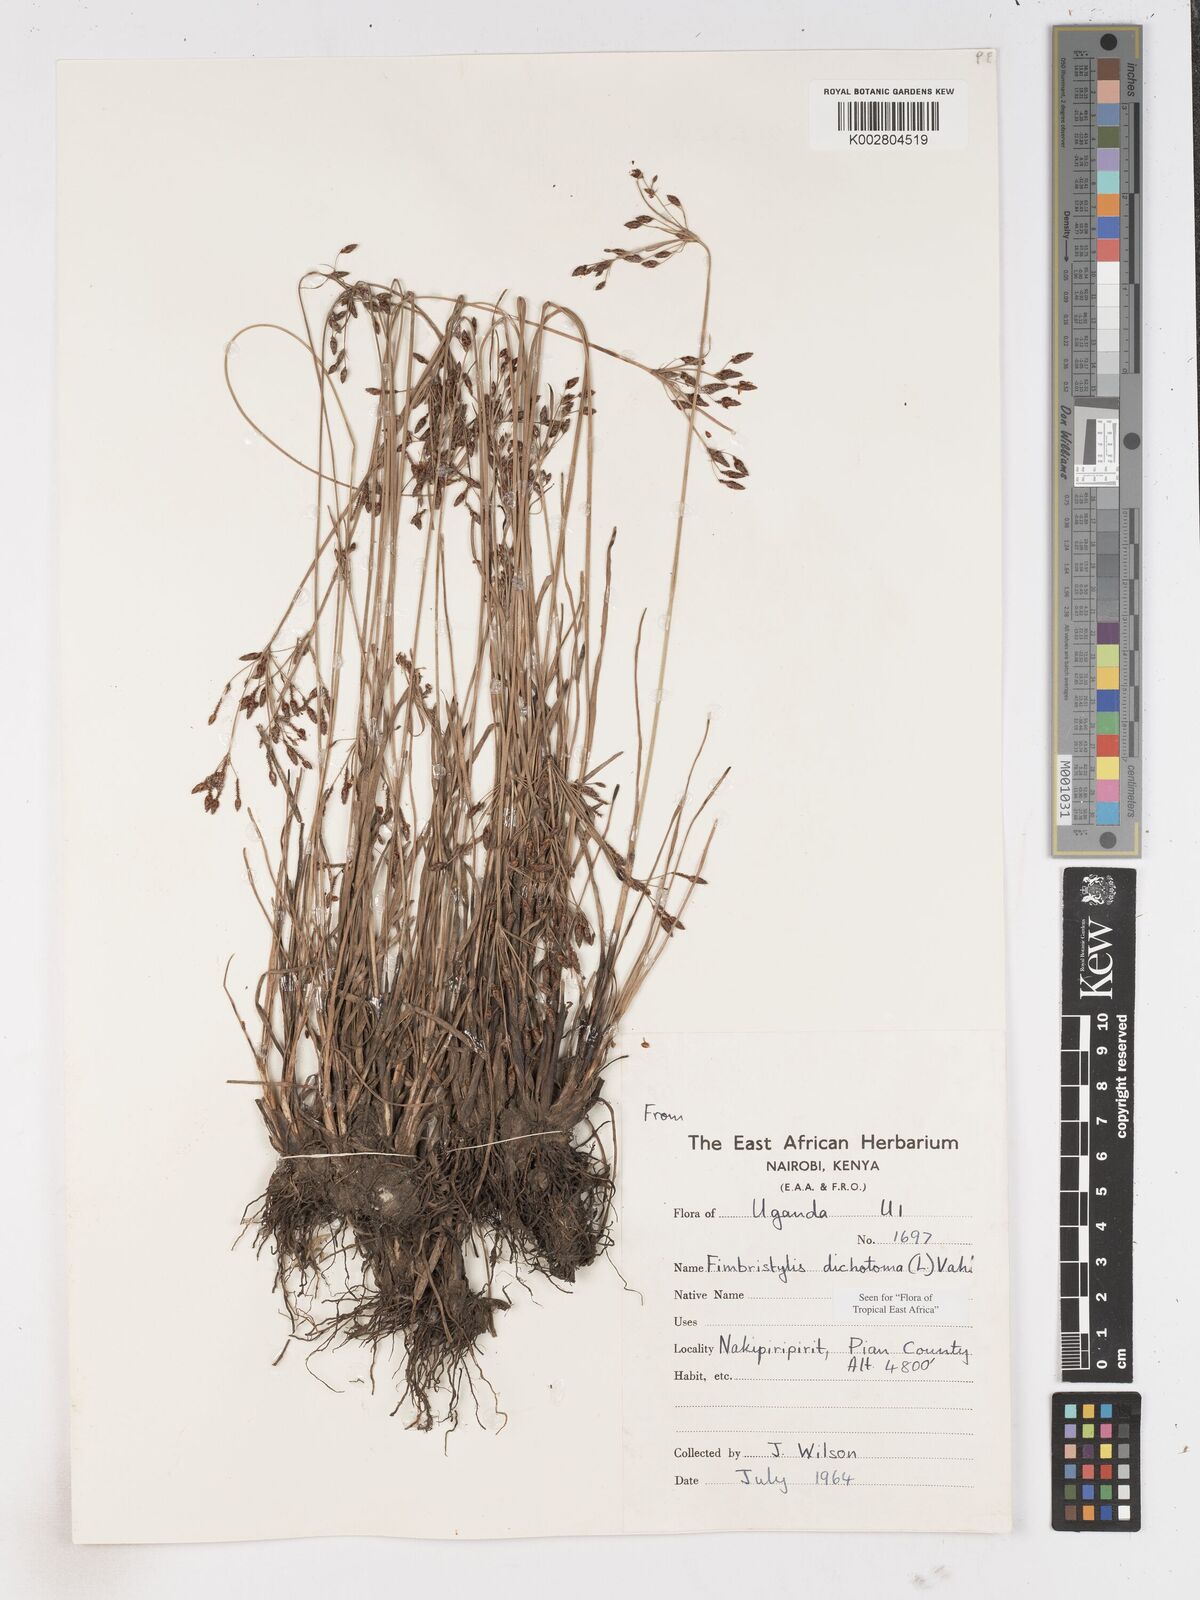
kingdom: Plantae
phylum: Tracheophyta
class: Liliopsida
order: Poales
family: Cyperaceae
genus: Fimbristylis
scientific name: Fimbristylis dichotoma
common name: Forked fimbry
